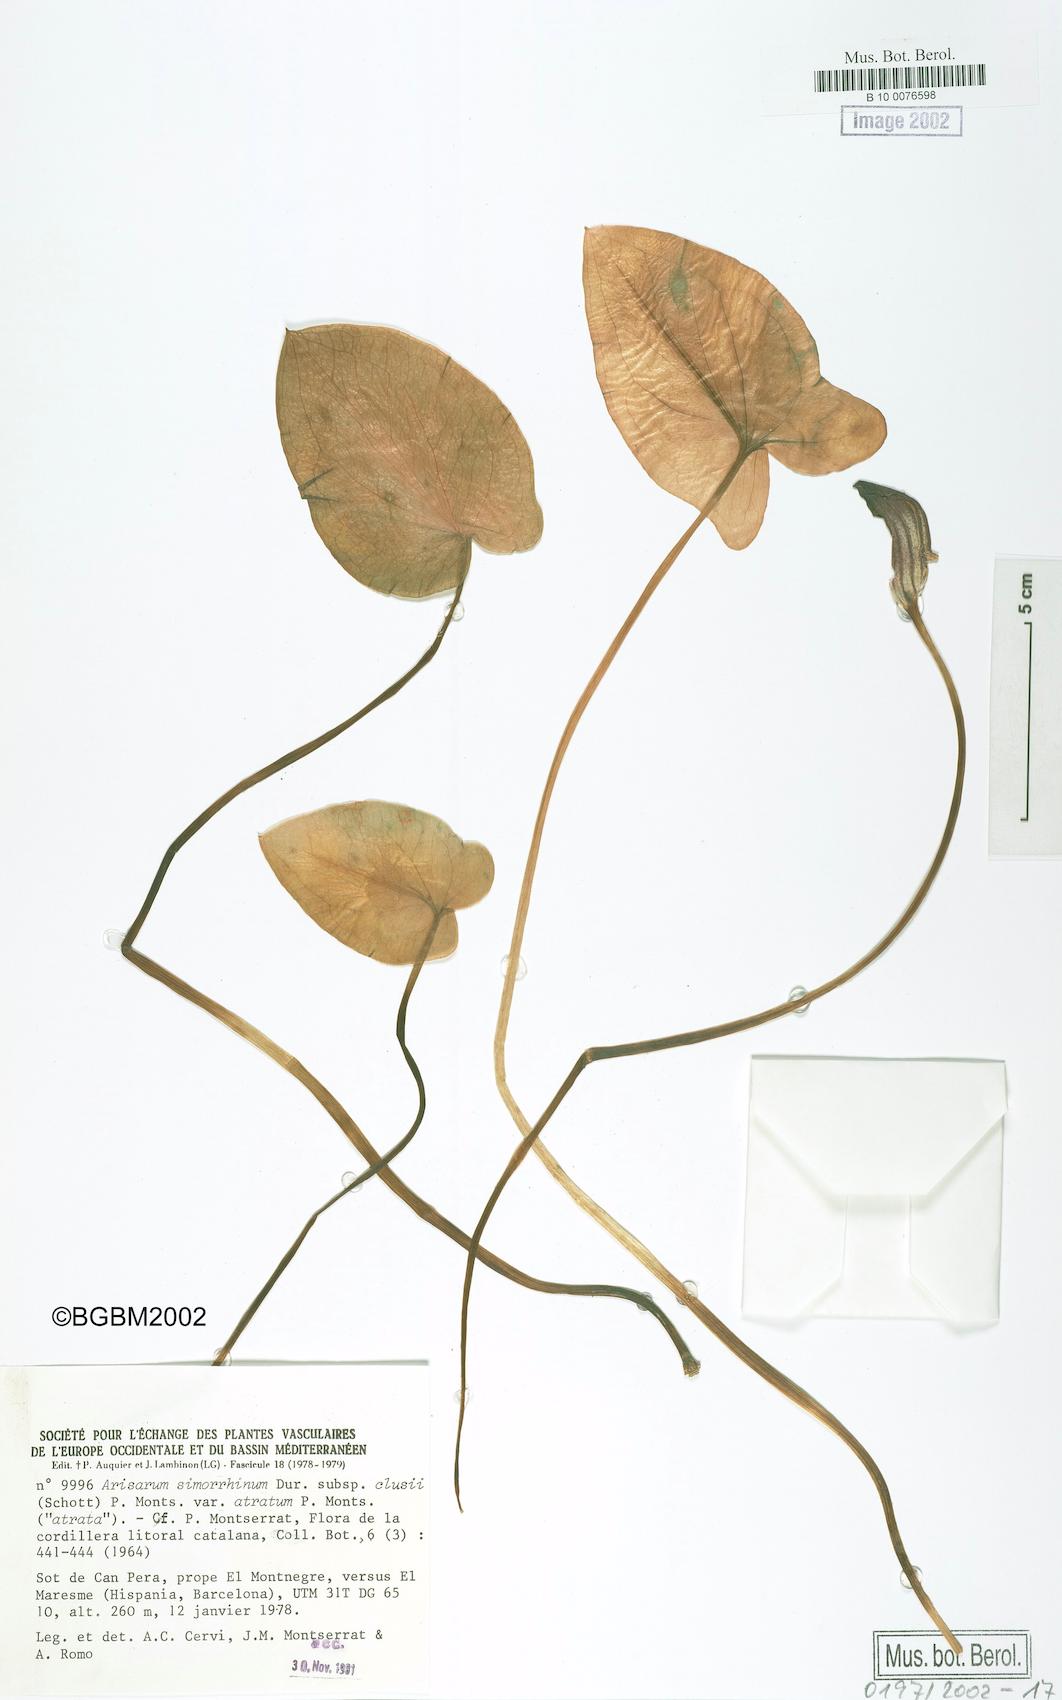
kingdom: Plantae
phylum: Tracheophyta
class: Liliopsida
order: Alismatales
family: Araceae
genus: Arisarum
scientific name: Arisarum simorrhinum
